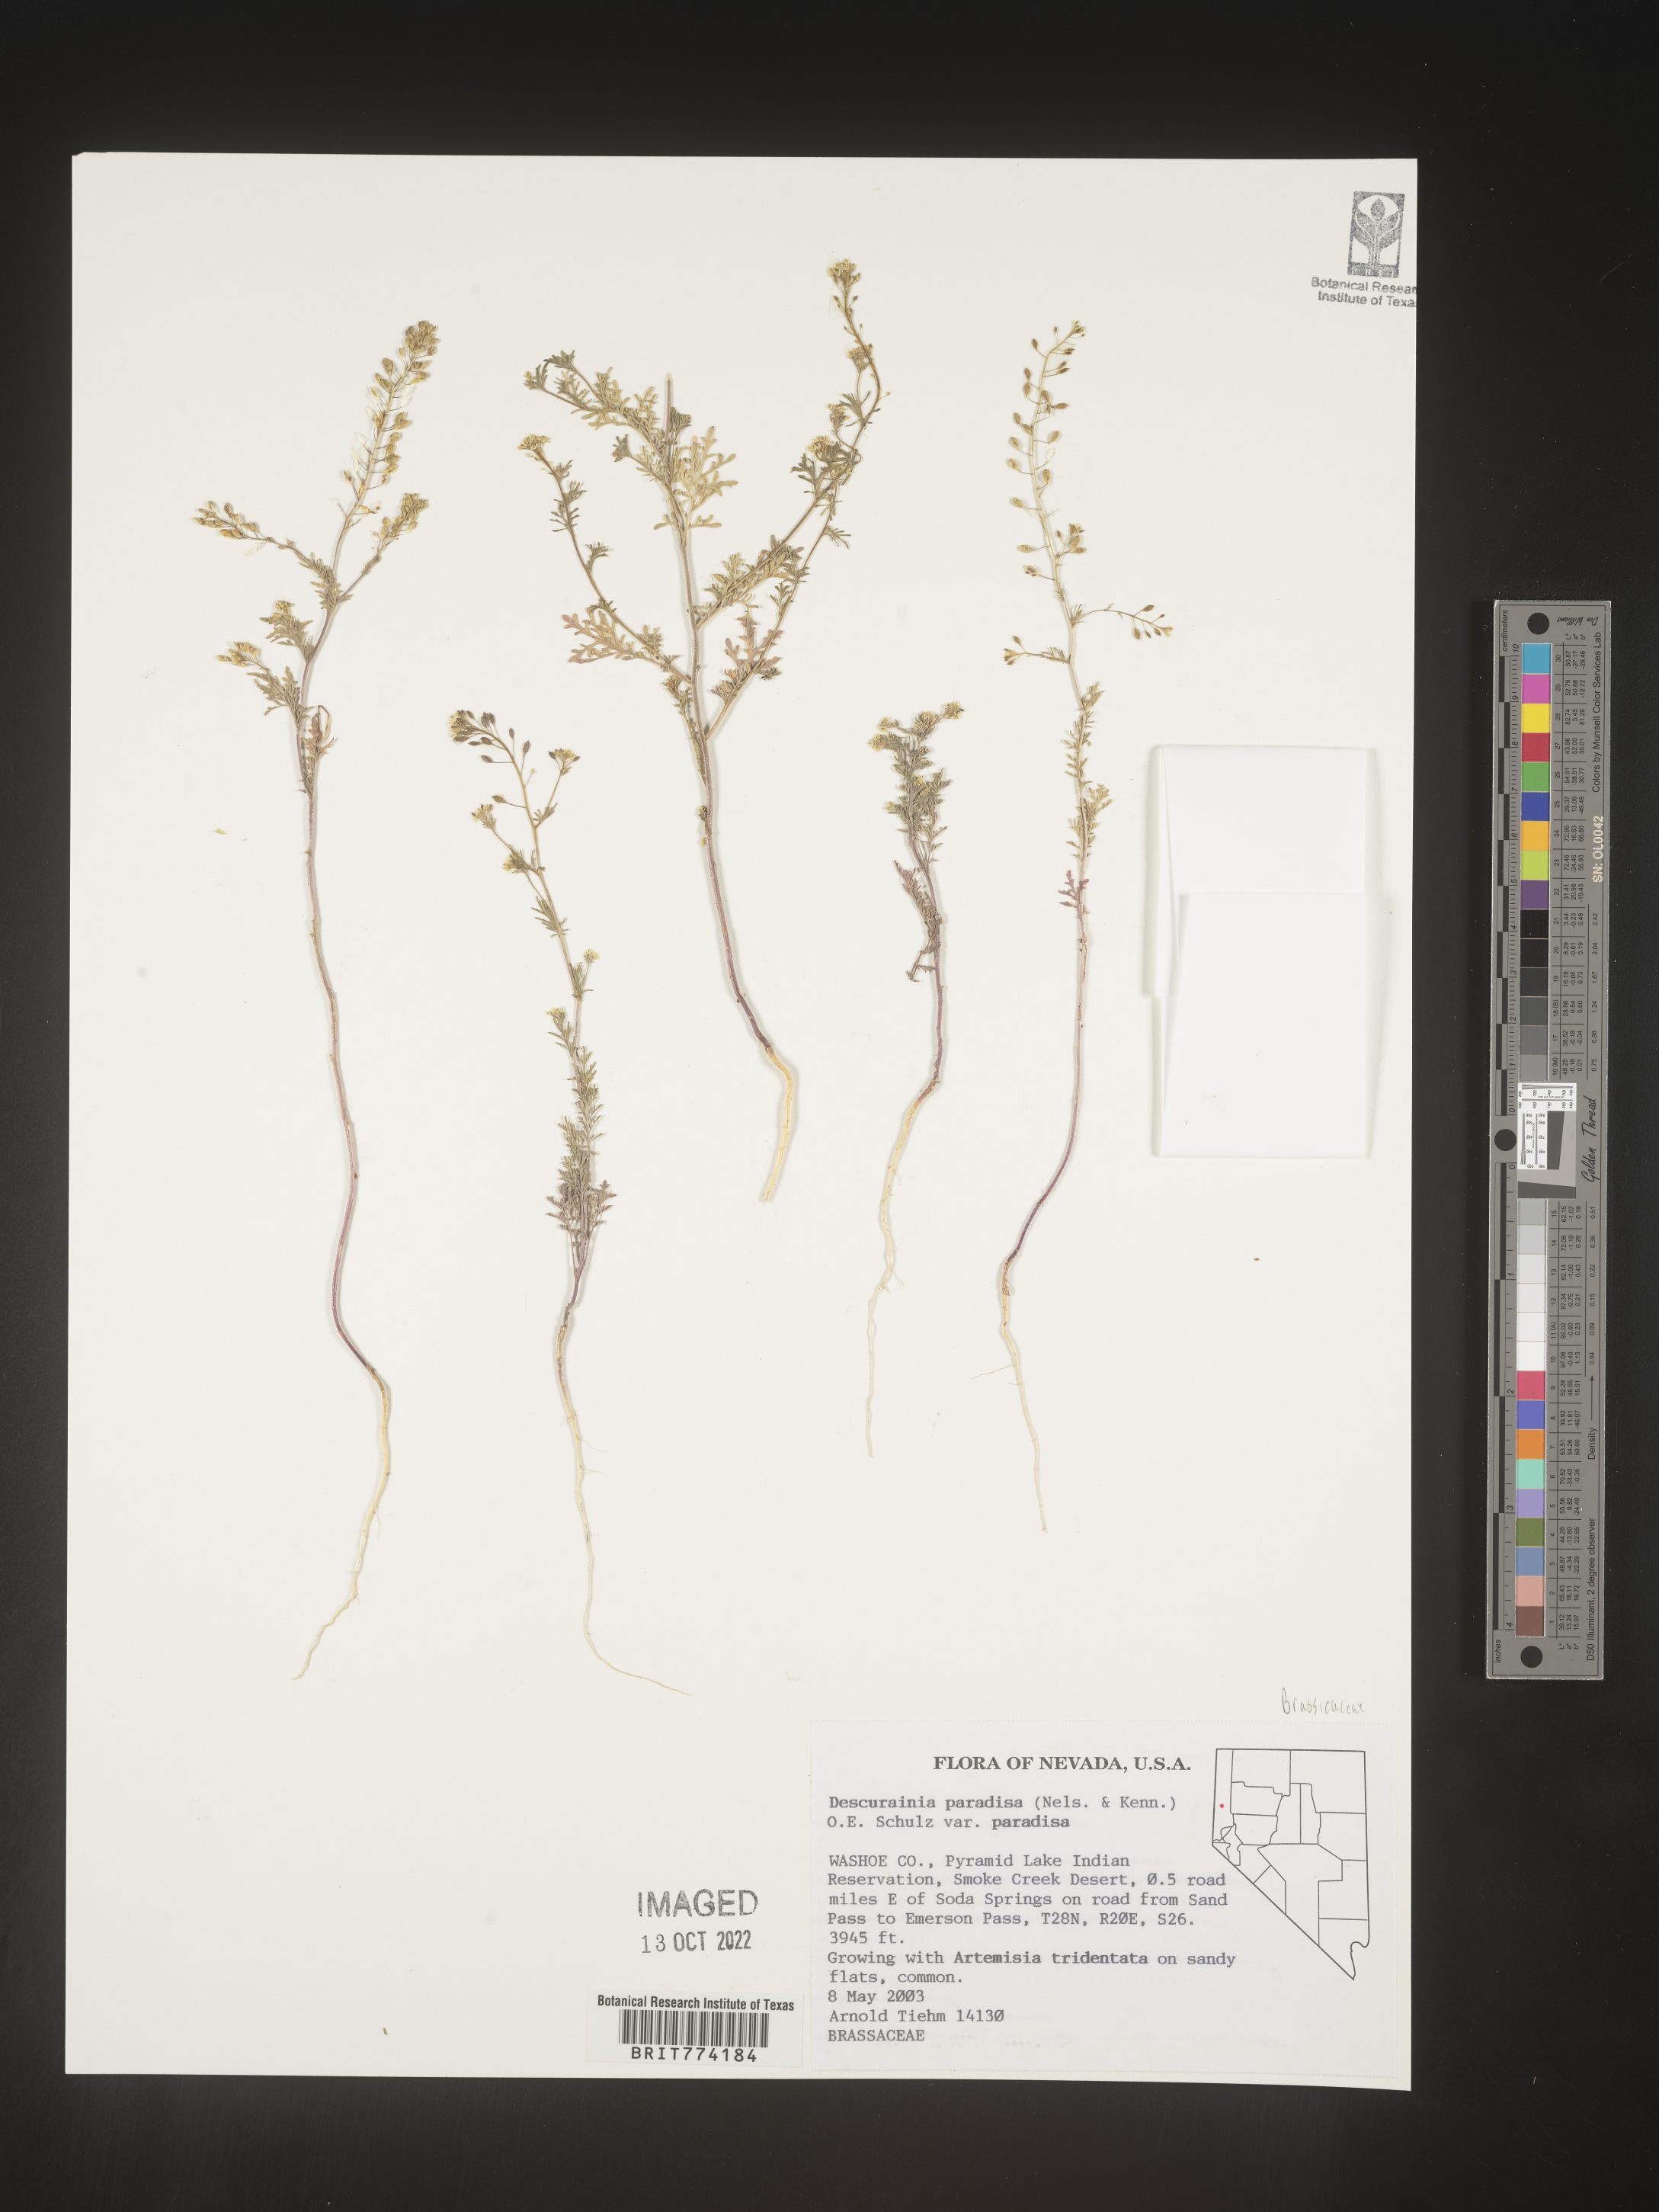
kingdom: Plantae
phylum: Tracheophyta
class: Magnoliopsida
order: Brassicales
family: Brassicaceae
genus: Descurainia
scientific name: Descurainia paradisa
